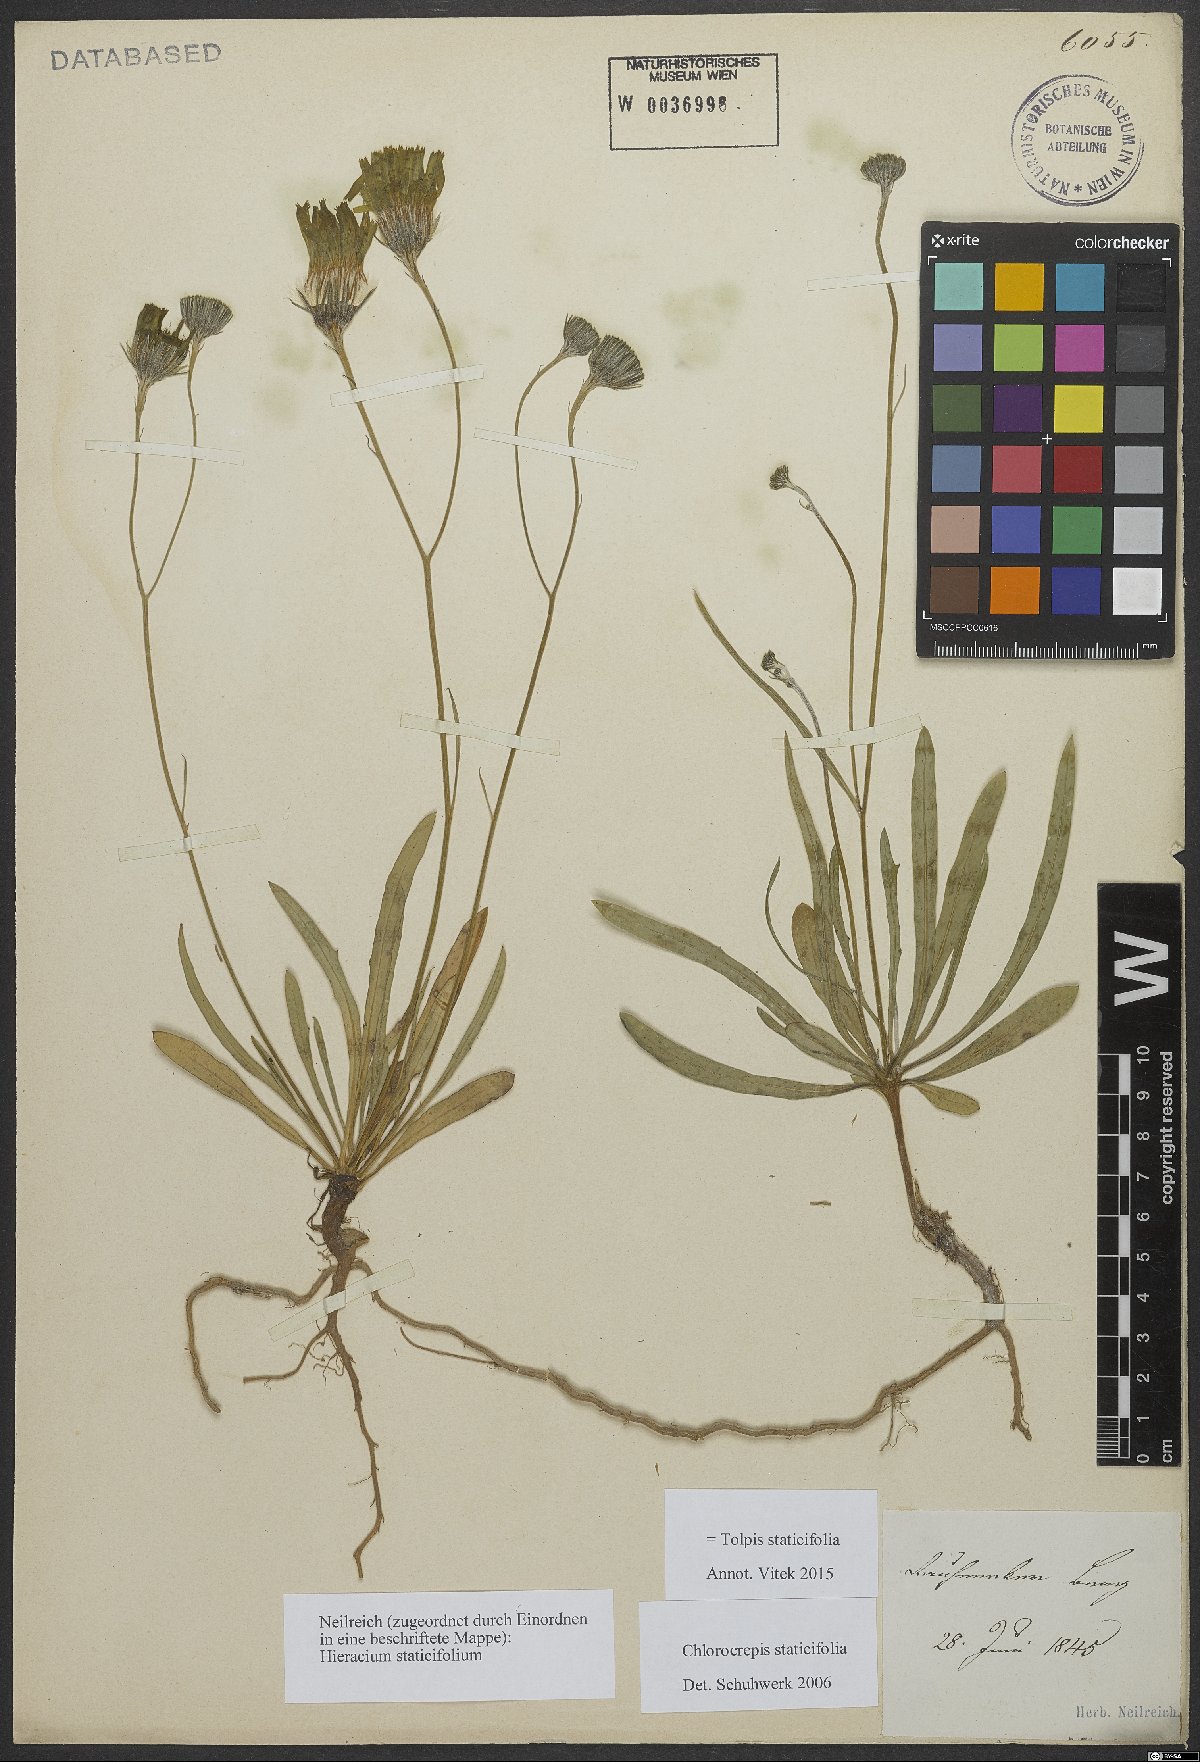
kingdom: Plantae
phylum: Tracheophyta
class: Magnoliopsida
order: Asterales
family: Asteraceae
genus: Tolpis
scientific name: Tolpis staticifolia
